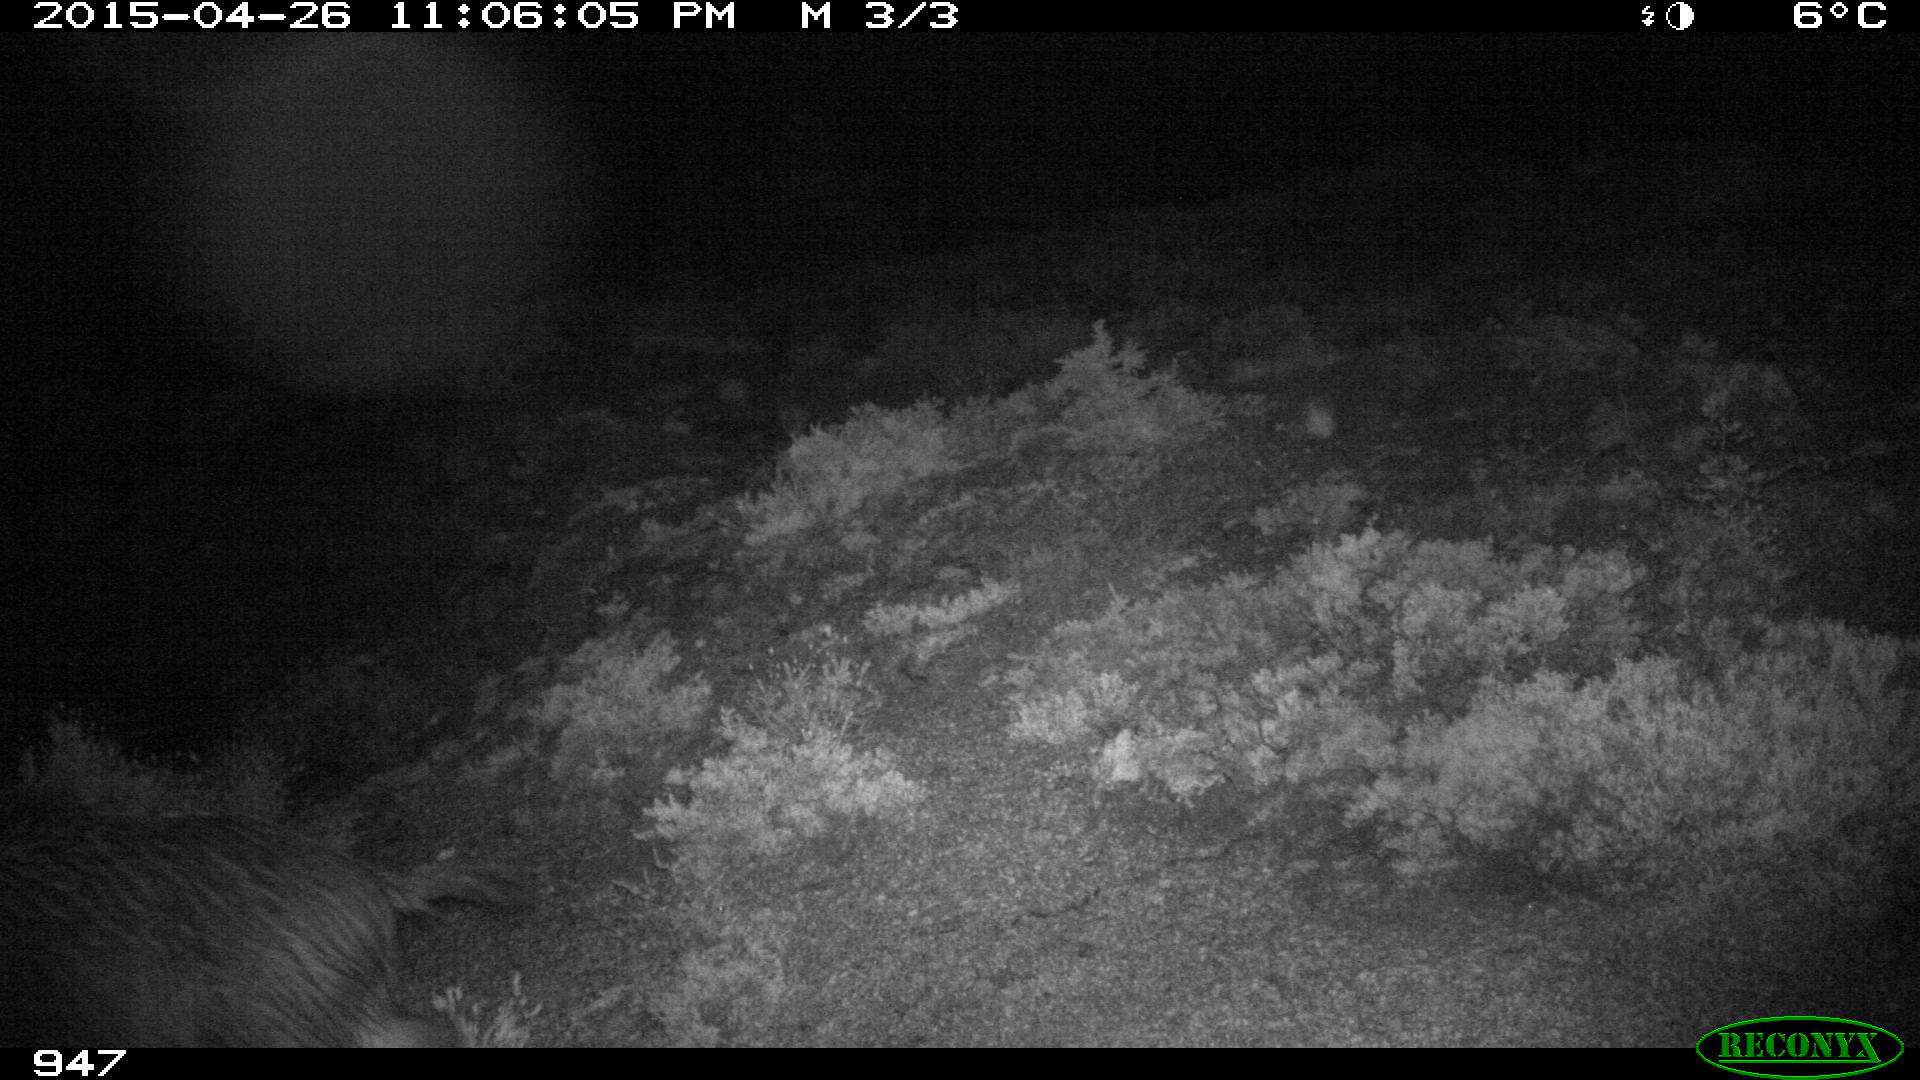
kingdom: Animalia
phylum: Chordata
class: Mammalia
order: Artiodactyla
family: Suidae
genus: Sus
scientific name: Sus scrofa
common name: Wild boar
